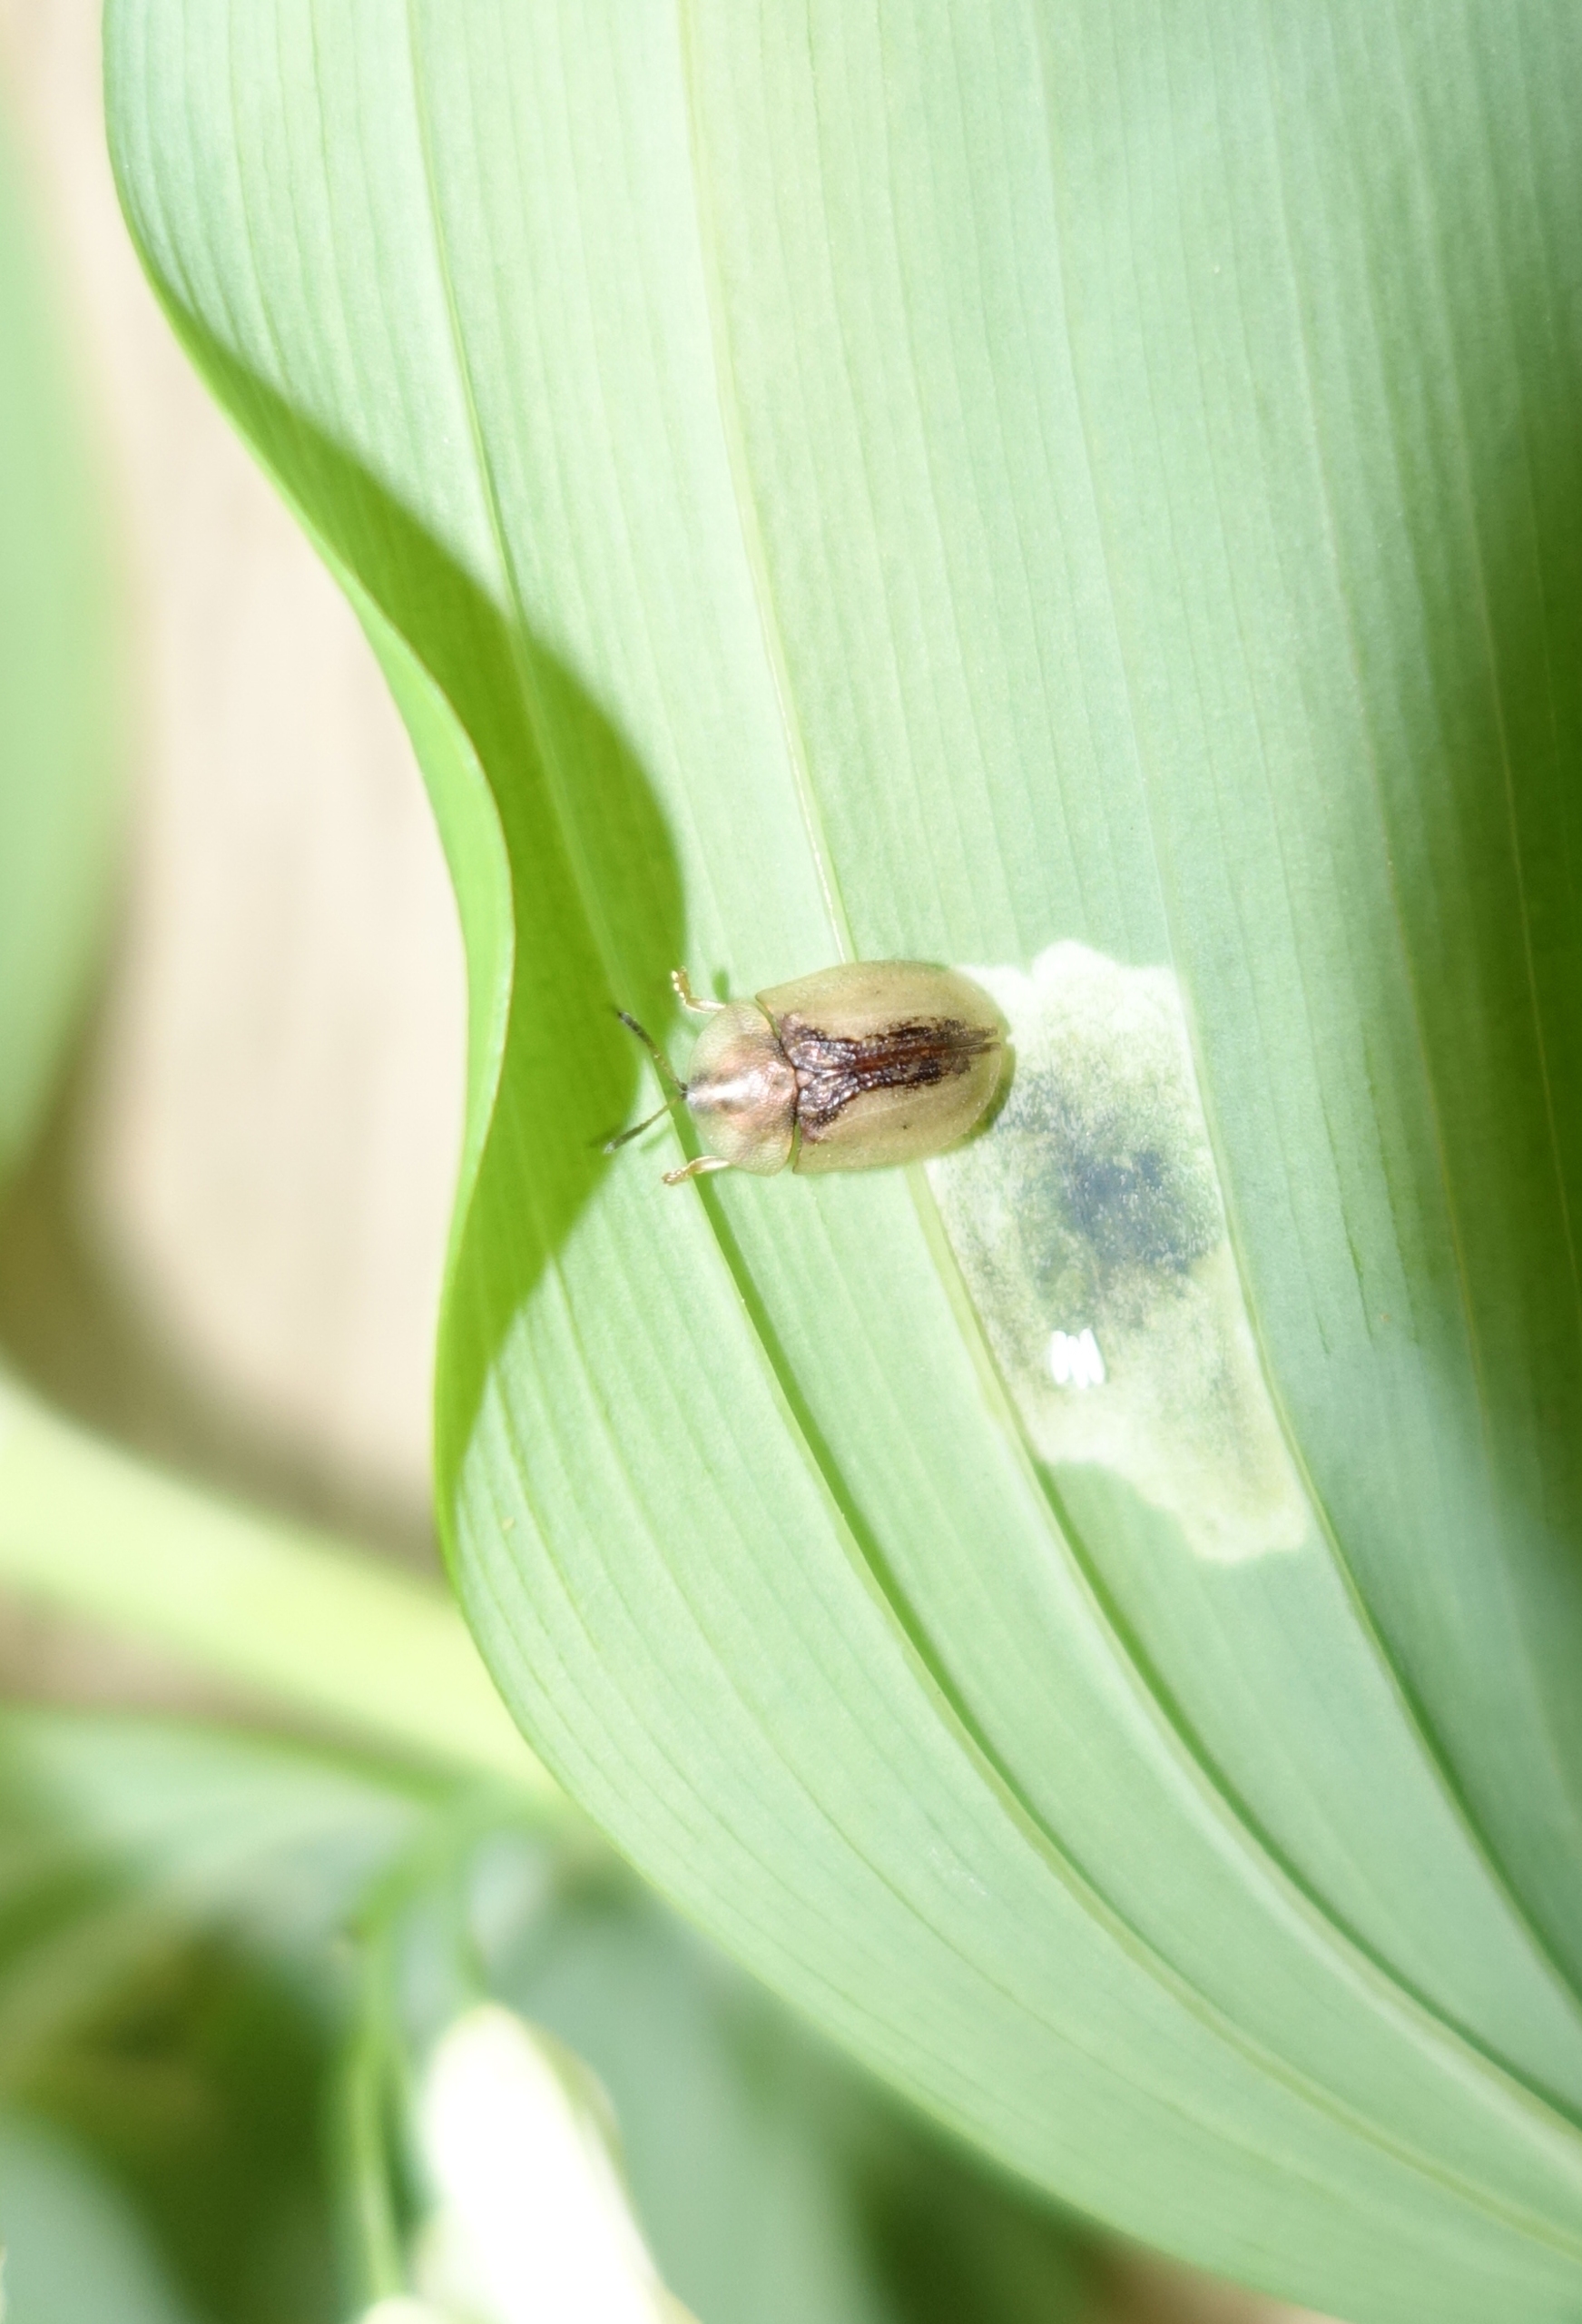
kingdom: Animalia
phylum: Arthropoda
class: Insecta
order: Coleoptera
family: Chrysomelidae
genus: Cassida
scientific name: Cassida vibex
